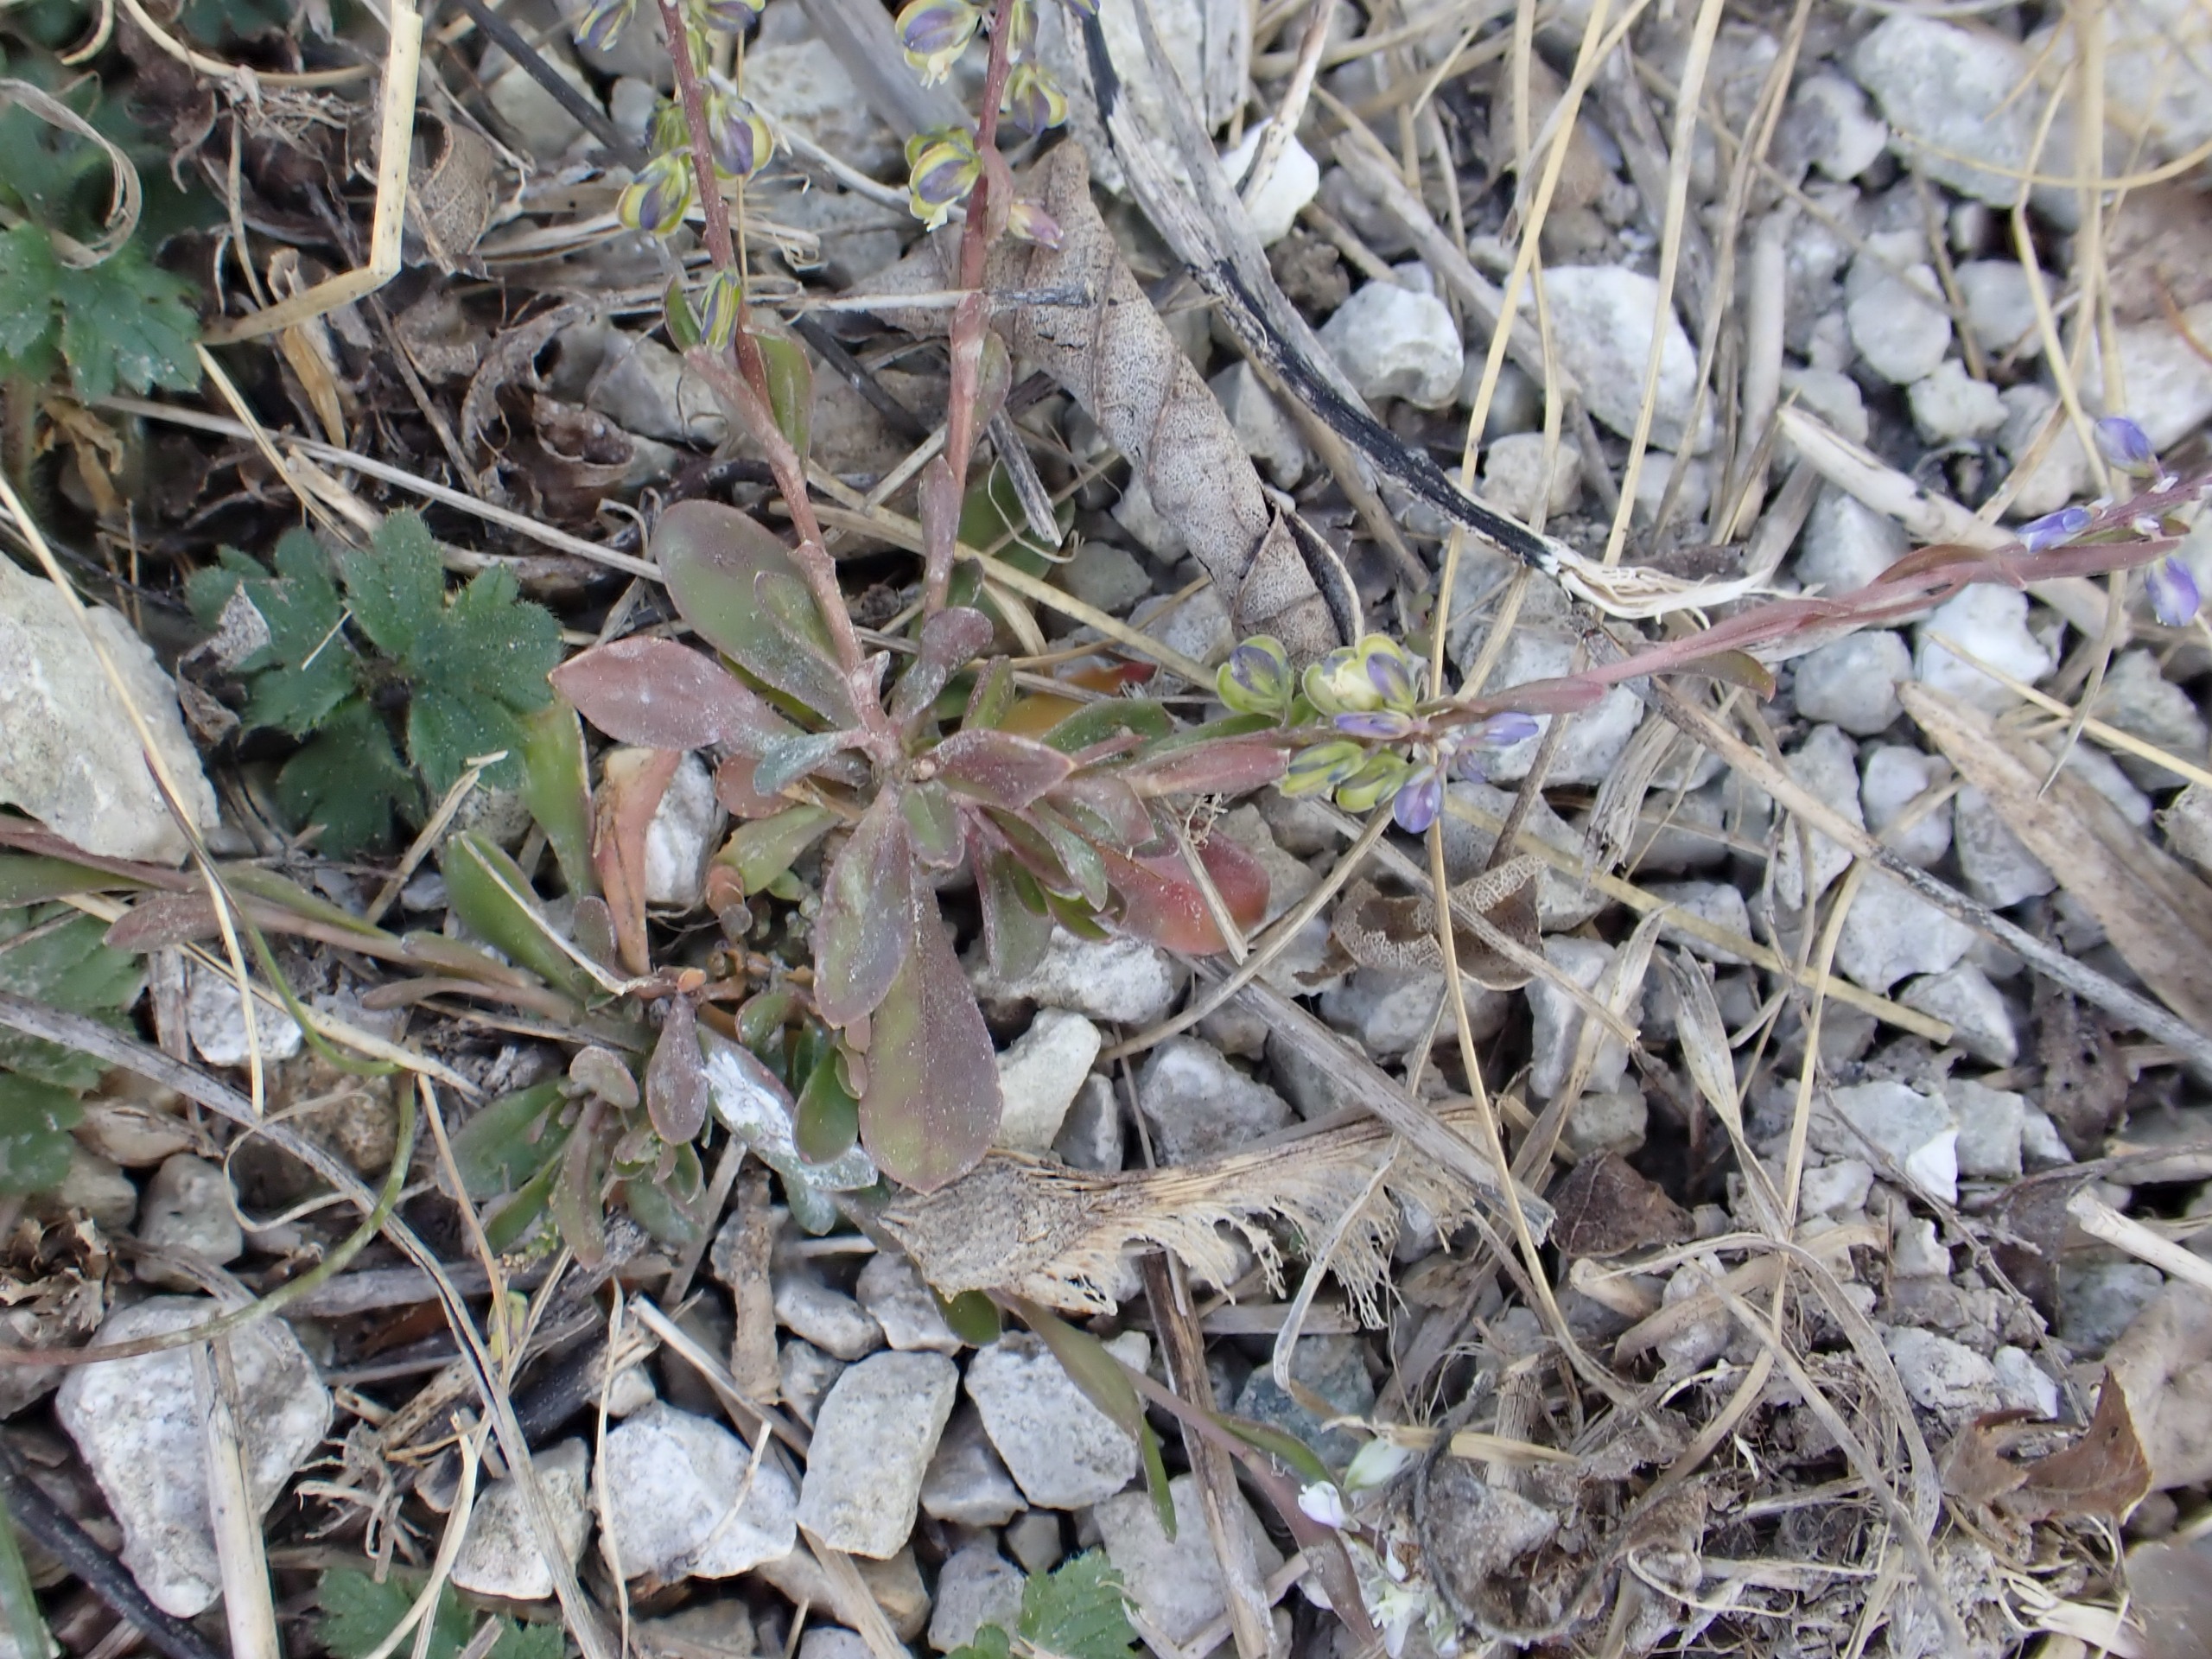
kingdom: Plantae
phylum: Tracheophyta
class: Magnoliopsida
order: Fabales
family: Polygalaceae
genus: Polygala
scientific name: Polygala amarella
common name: Bitter mælkeurt
